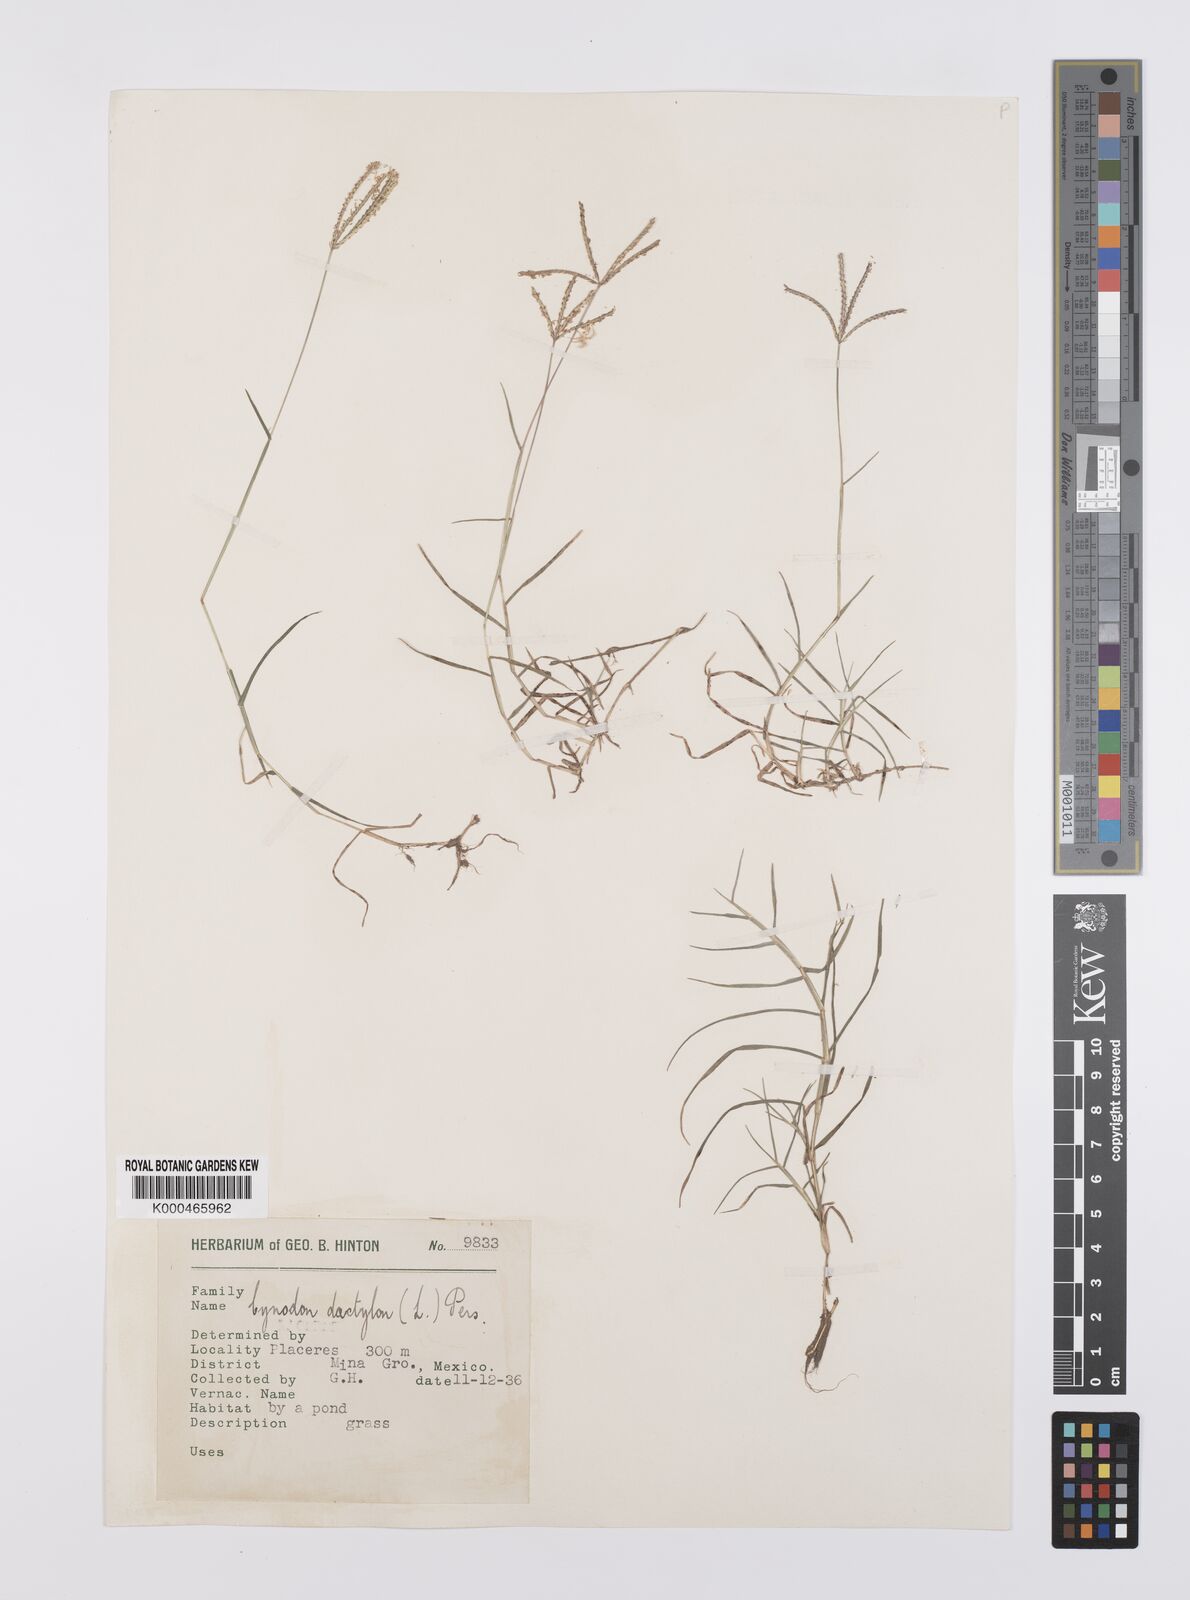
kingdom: Plantae
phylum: Tracheophyta
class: Liliopsida
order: Poales
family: Poaceae
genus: Cynodon
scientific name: Cynodon dactylon
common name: Bermuda grass
